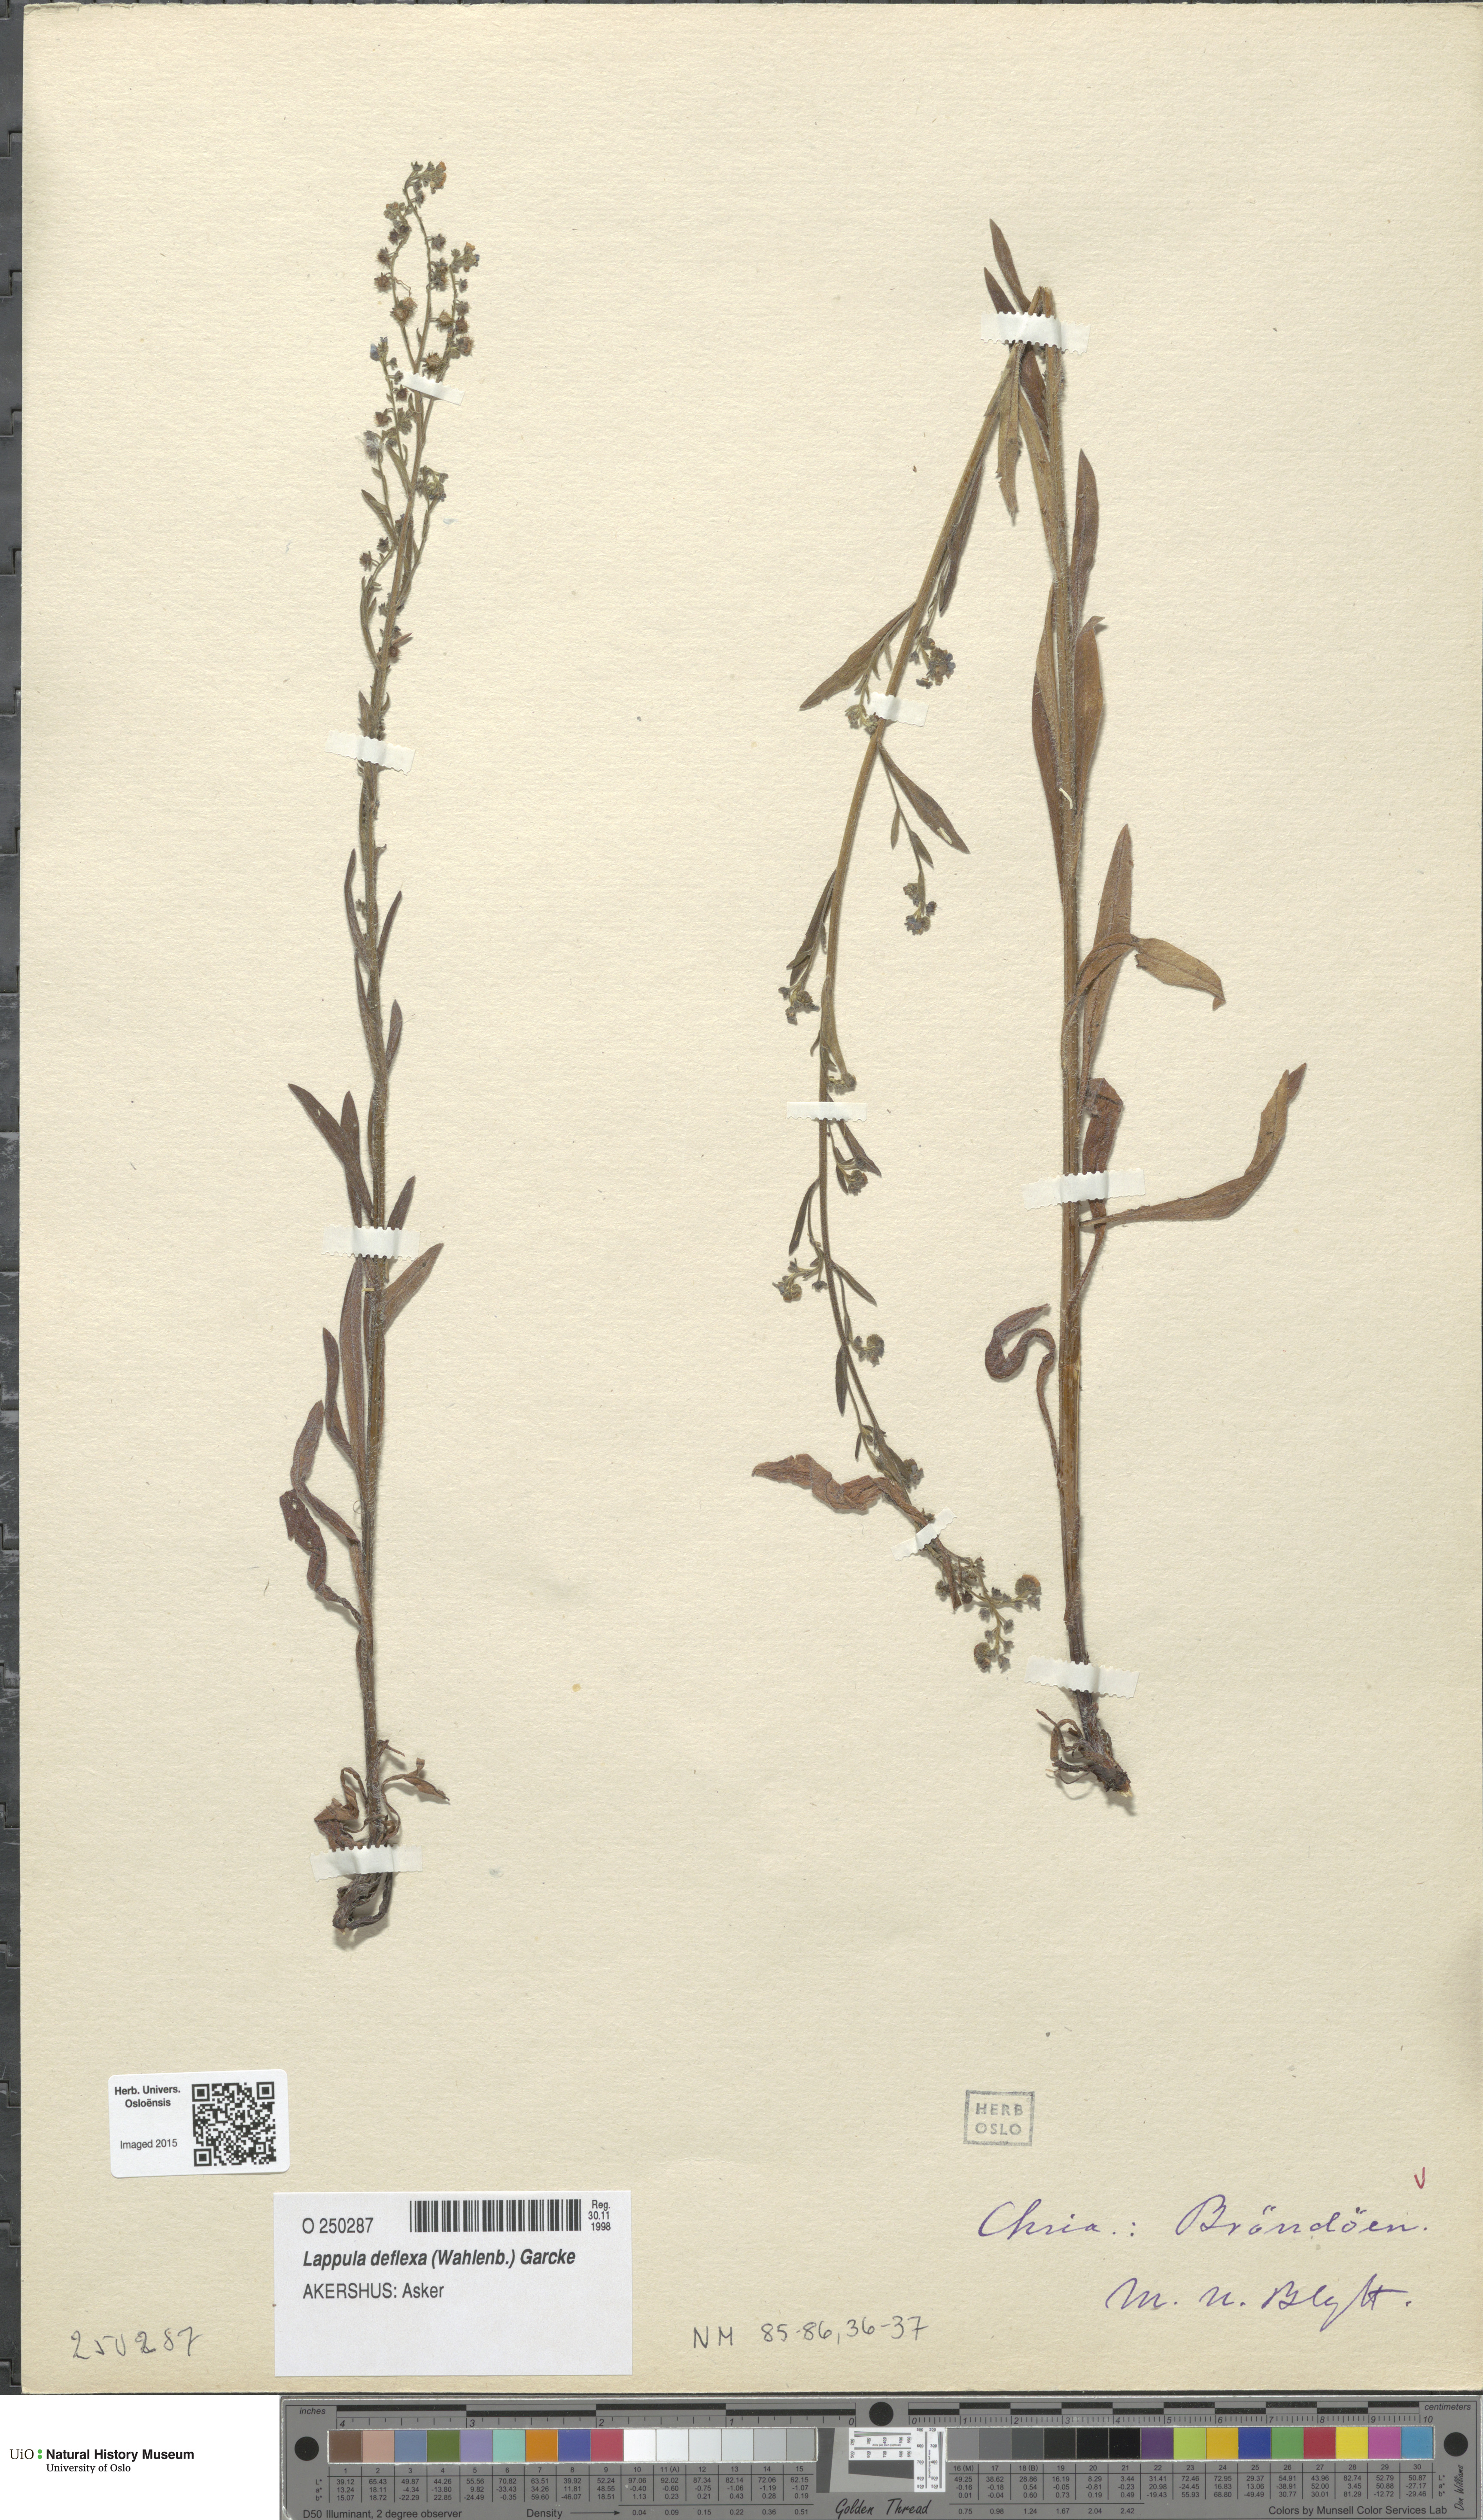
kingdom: Plantae
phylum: Tracheophyta
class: Magnoliopsida
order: Boraginales
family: Boraginaceae
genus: Hackelia
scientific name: Hackelia deflexa
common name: Nodding stickseed
